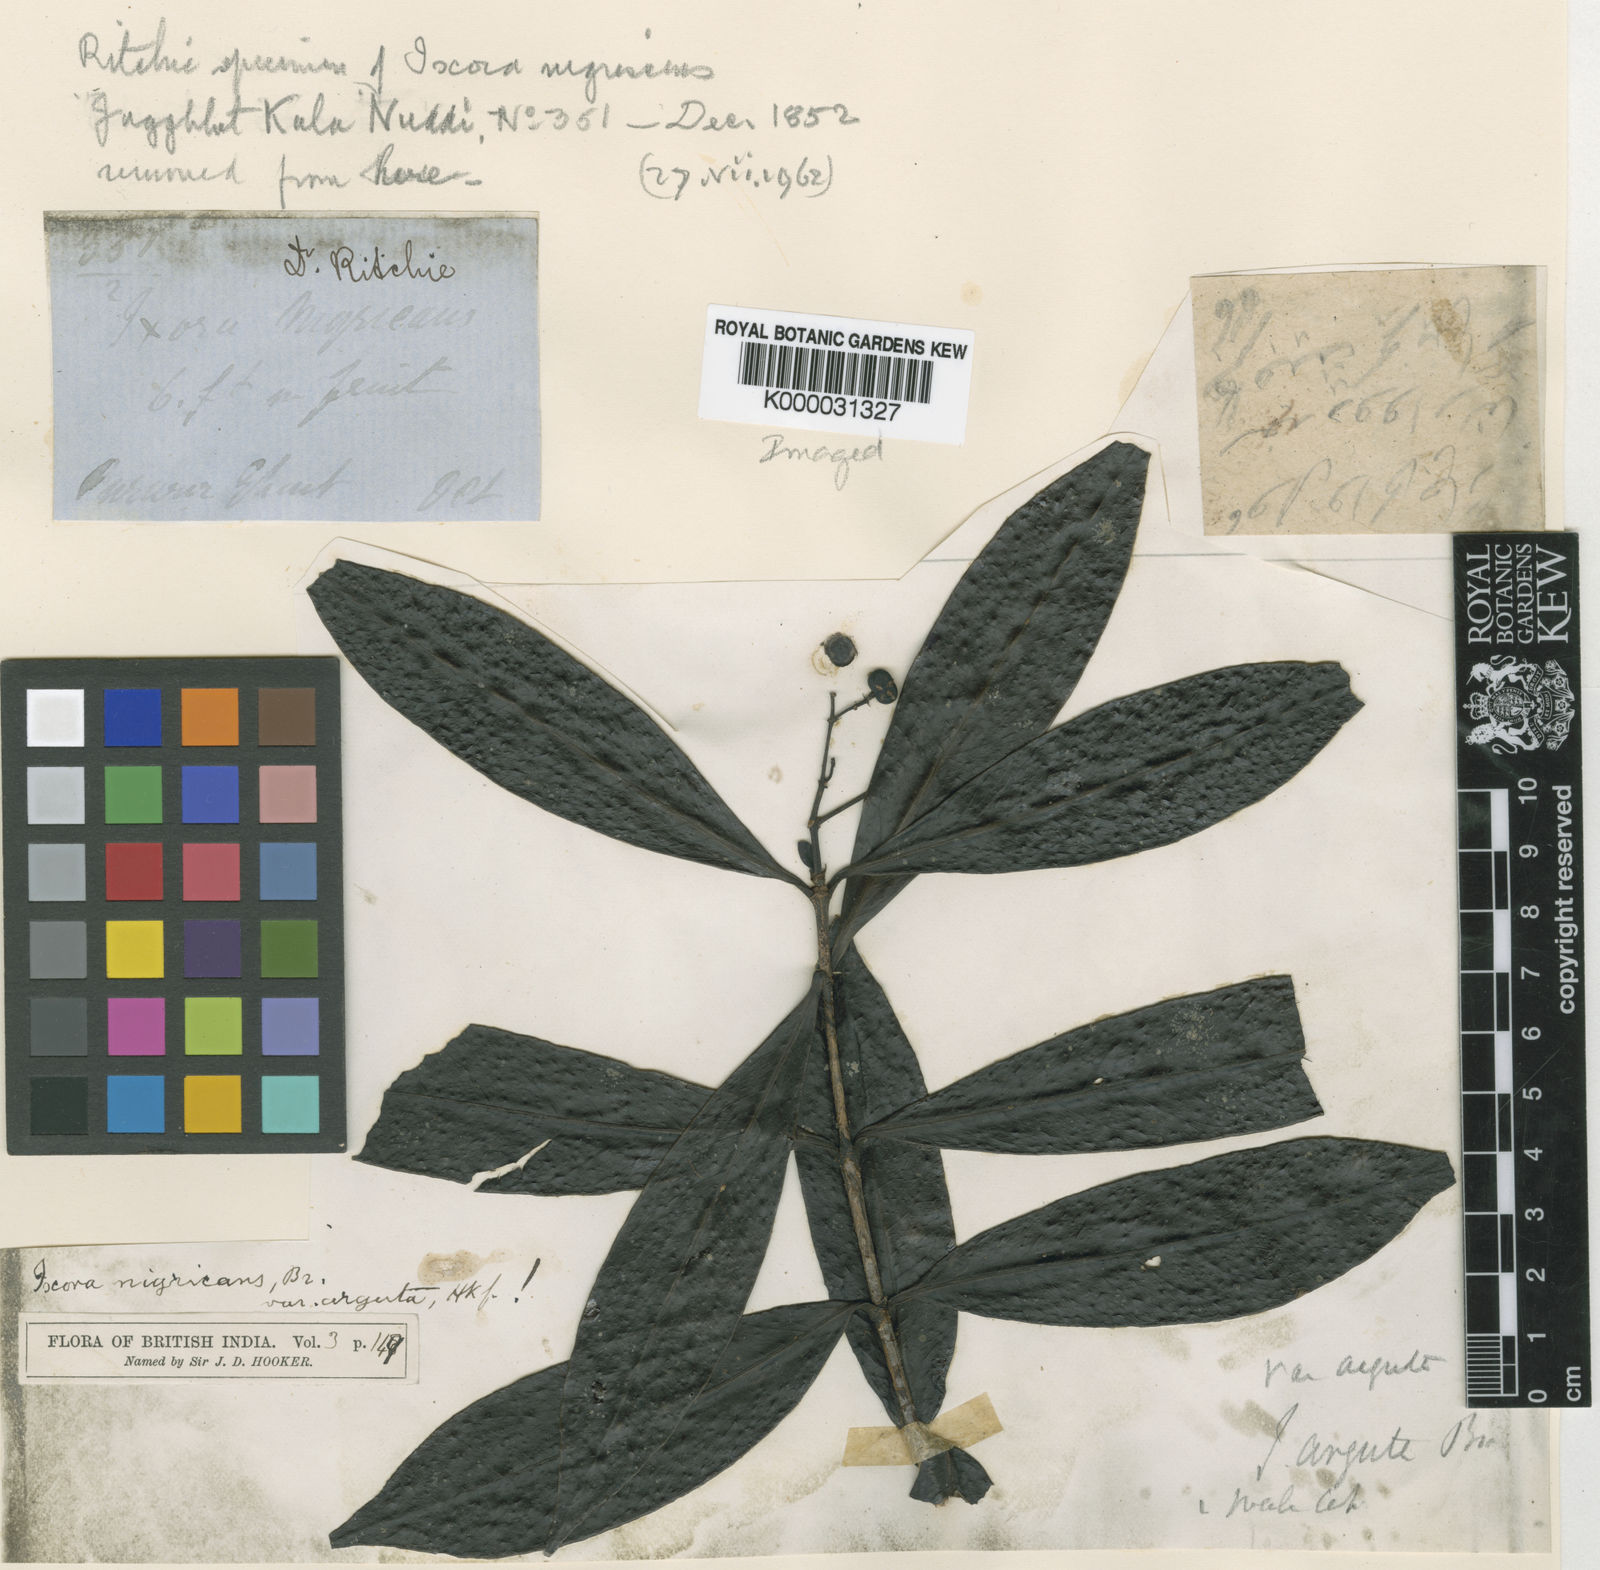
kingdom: Plantae
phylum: Tracheophyta
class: Magnoliopsida
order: Gentianales
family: Rubiaceae
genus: Ixora
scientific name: Ixora
